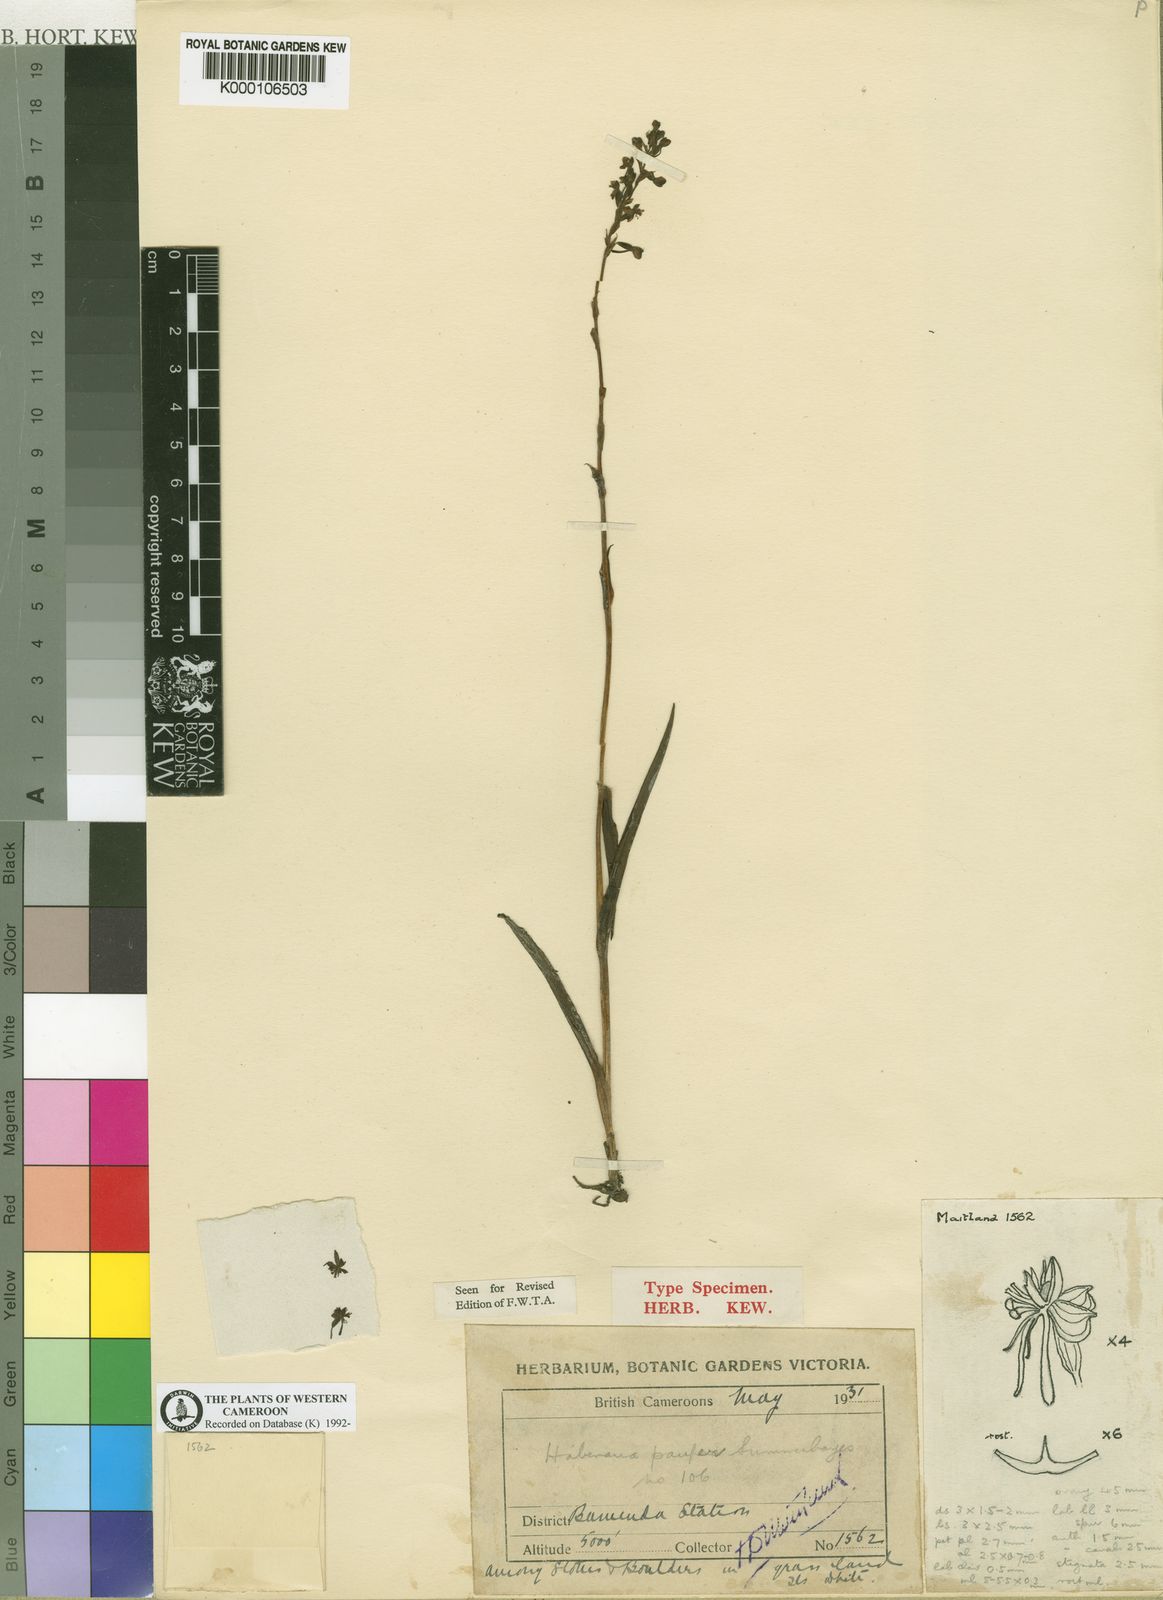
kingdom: Plantae
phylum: Tracheophyta
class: Liliopsida
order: Asparagales
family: Orchidaceae
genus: Habenaria
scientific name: Habenaria pauper
